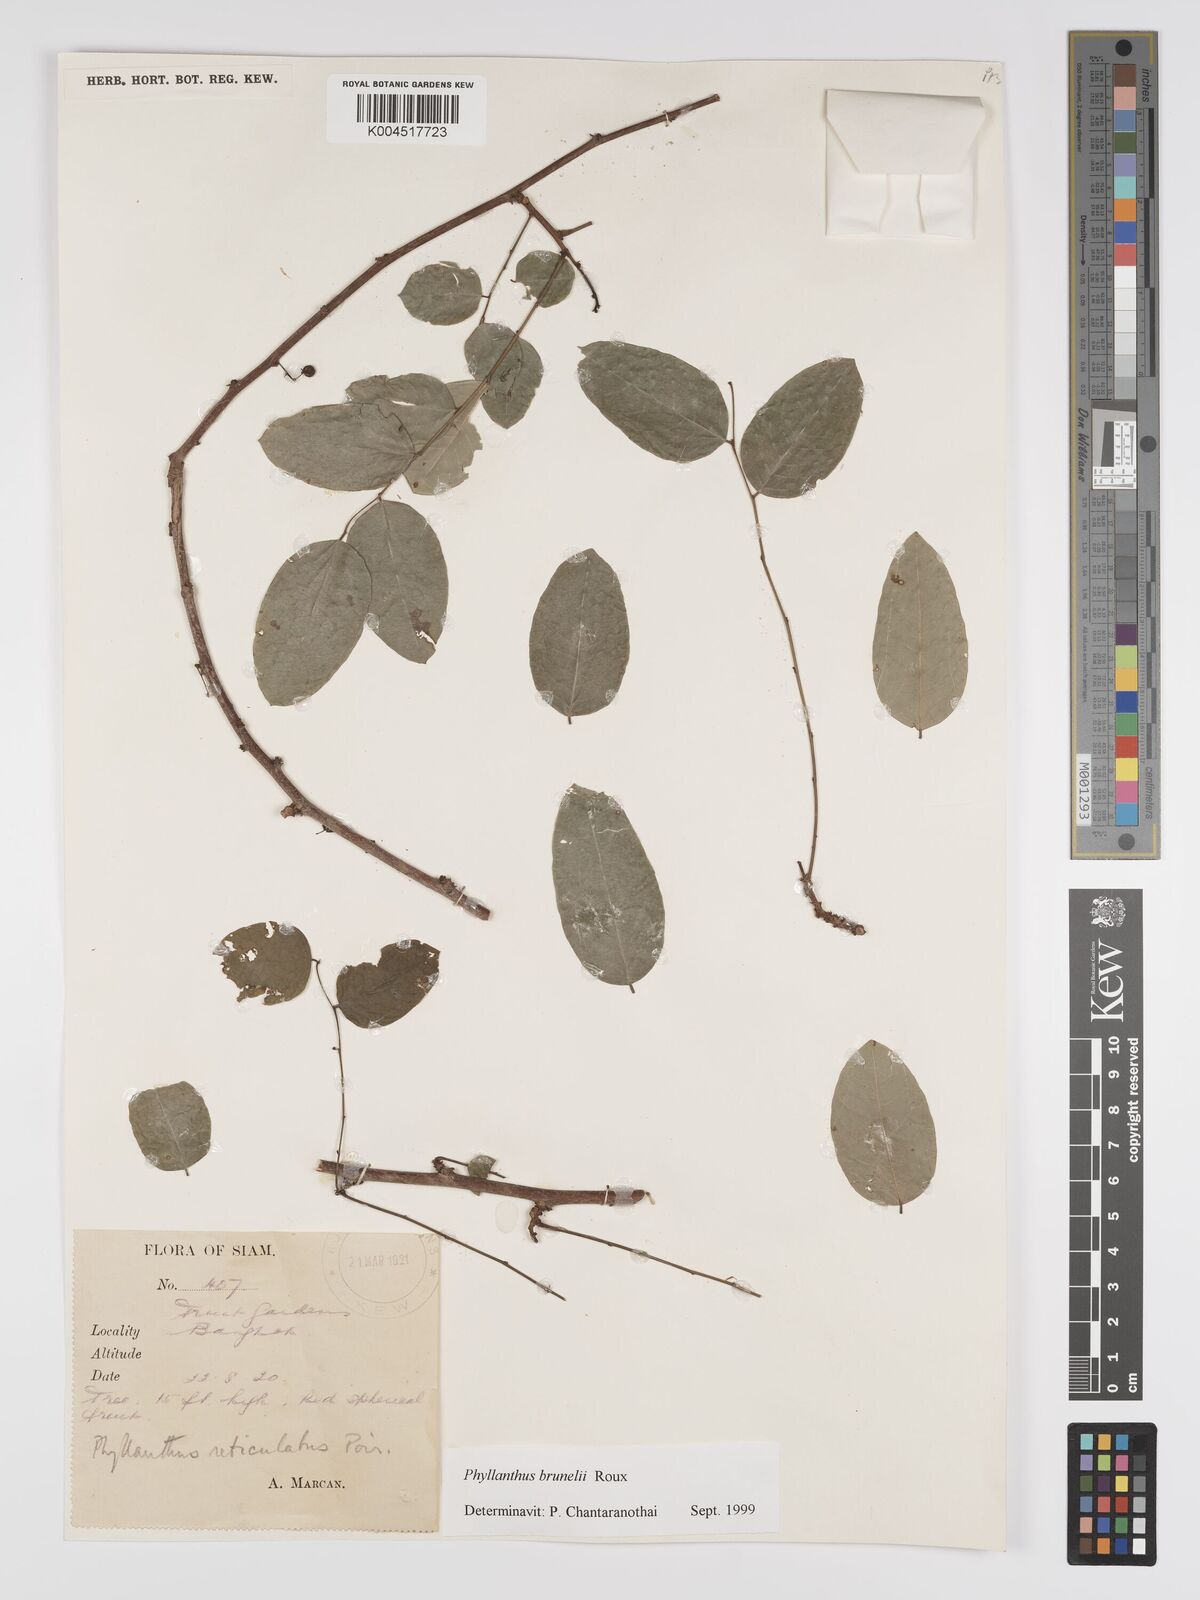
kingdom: Plantae
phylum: Tracheophyta
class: Magnoliopsida
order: Malpighiales
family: Phyllanthaceae
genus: Phyllanthus
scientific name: Phyllanthus microcarpus
